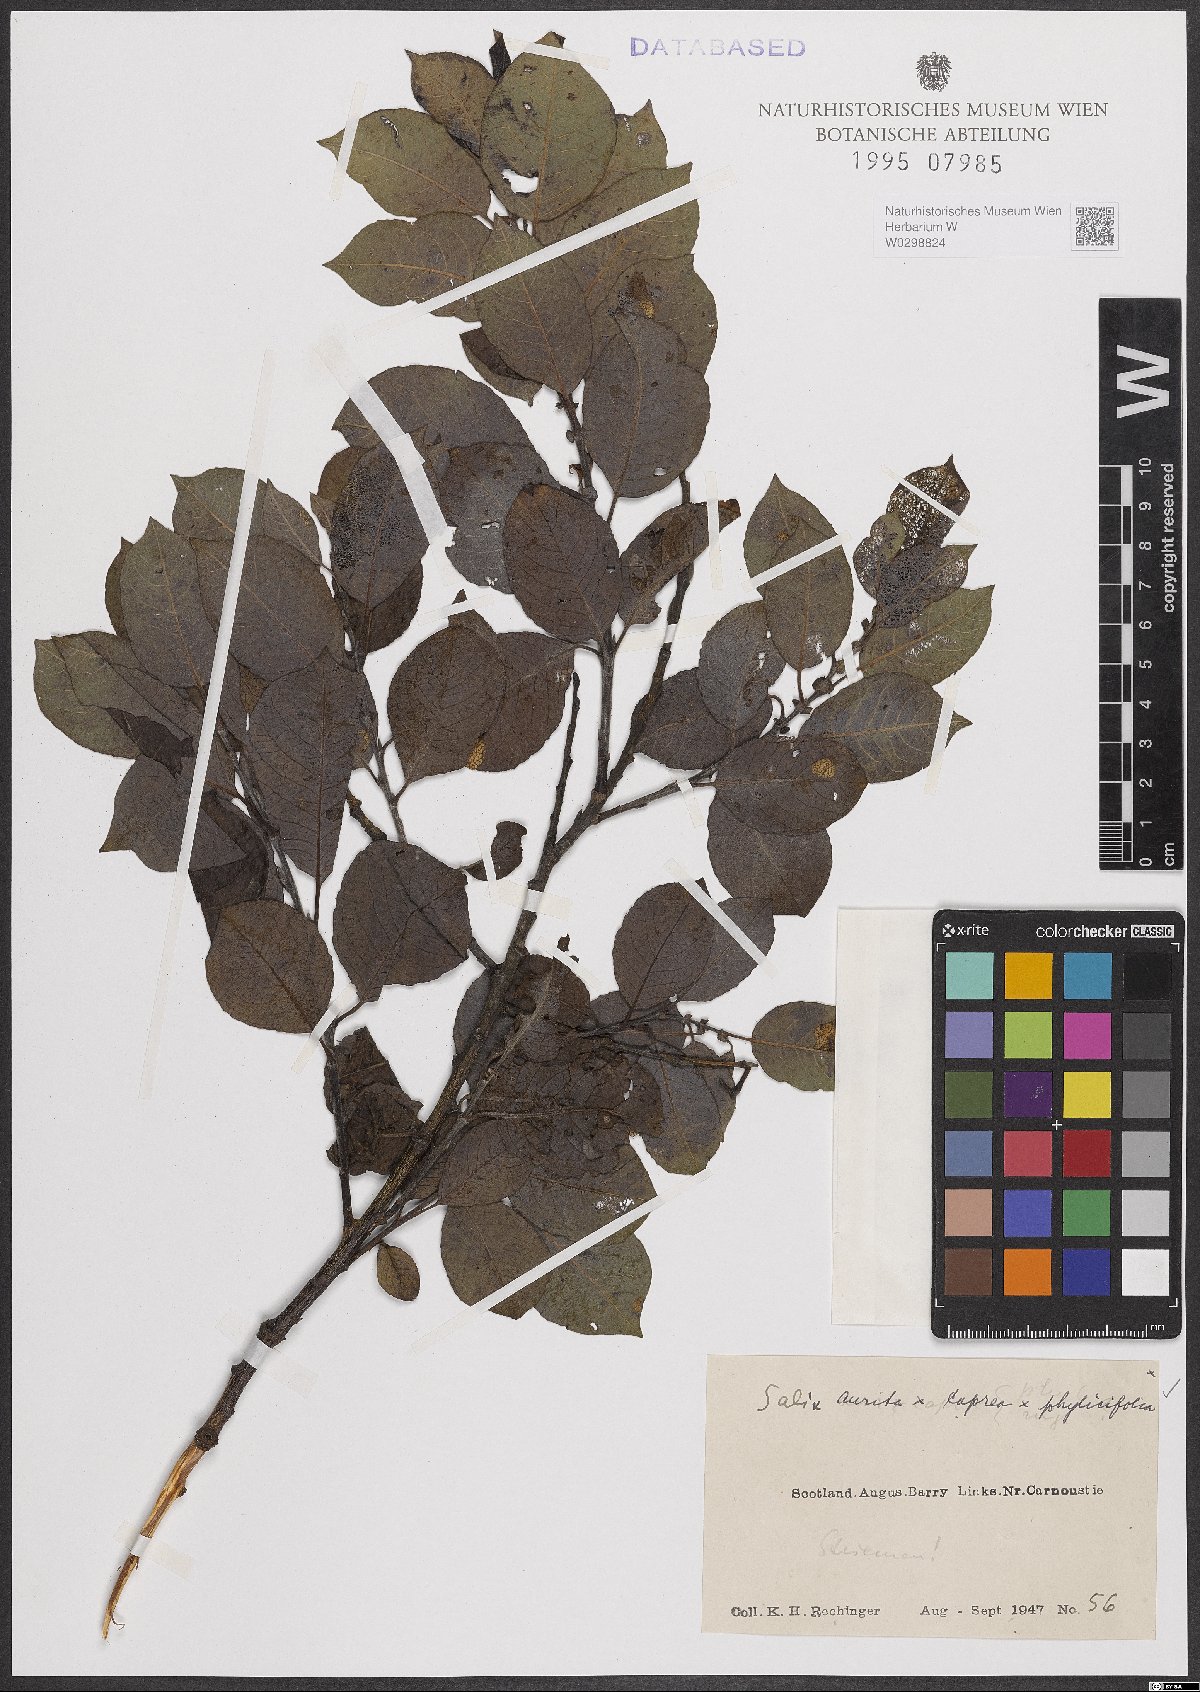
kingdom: Plantae
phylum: Tracheophyta
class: Magnoliopsida
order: Malpighiales
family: Salicaceae
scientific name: Salicaceae
